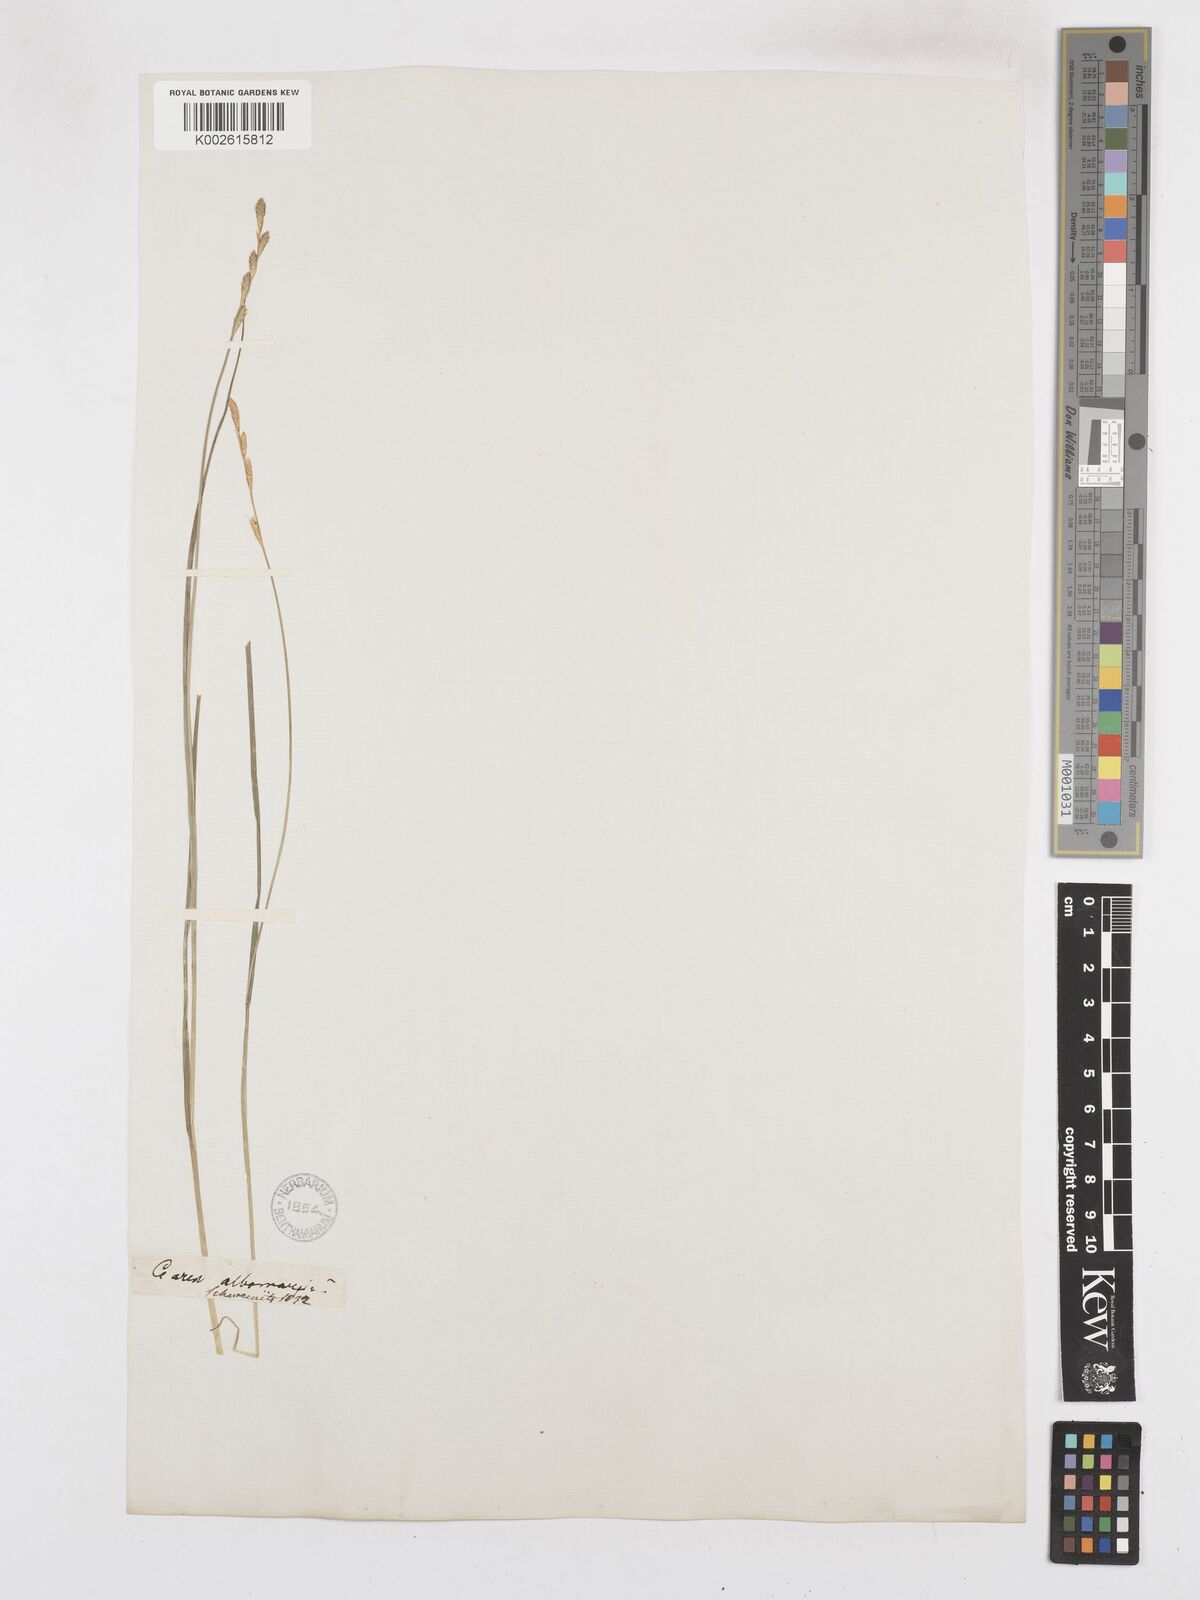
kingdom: Plantae
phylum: Tracheophyta
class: Liliopsida
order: Poales
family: Cyperaceae
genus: Carex
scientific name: Carex praticola
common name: Large-fruited oval sedge
